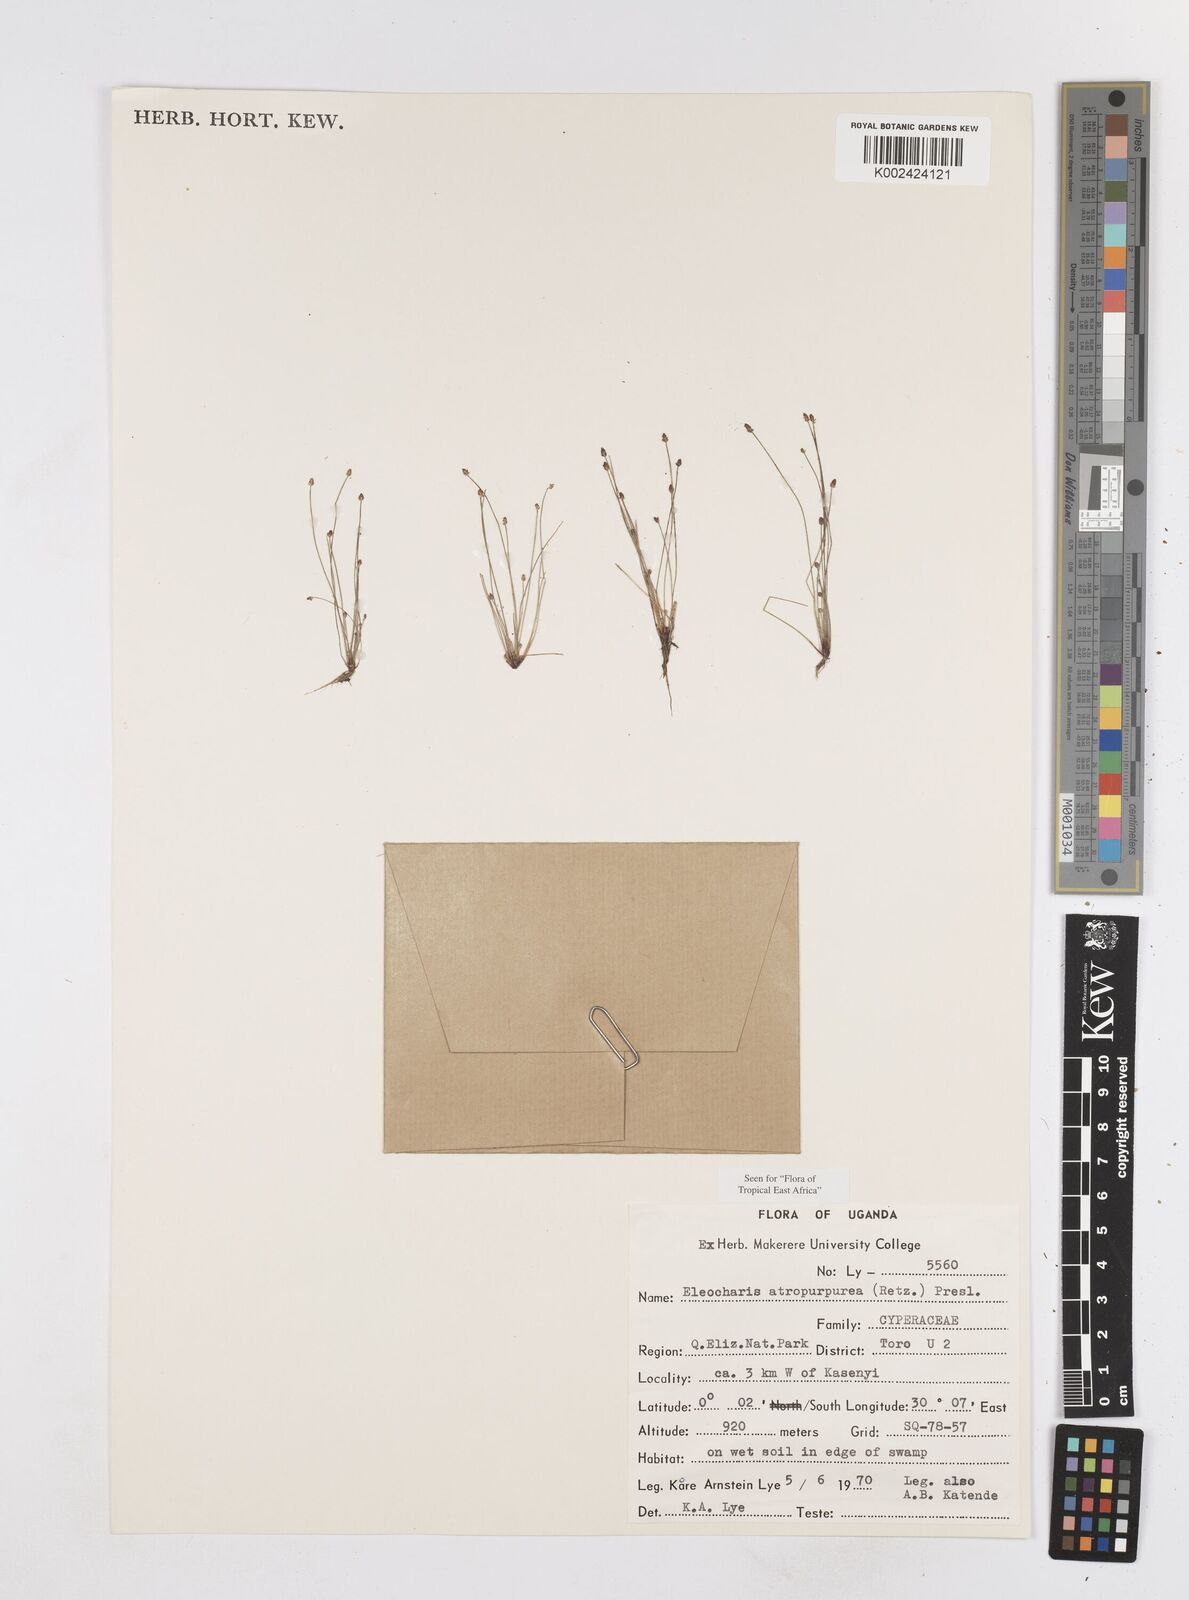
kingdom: Plantae
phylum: Tracheophyta
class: Liliopsida
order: Poales
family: Cyperaceae
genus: Eleocharis
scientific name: Eleocharis atropurpurea
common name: Purple spikerush
